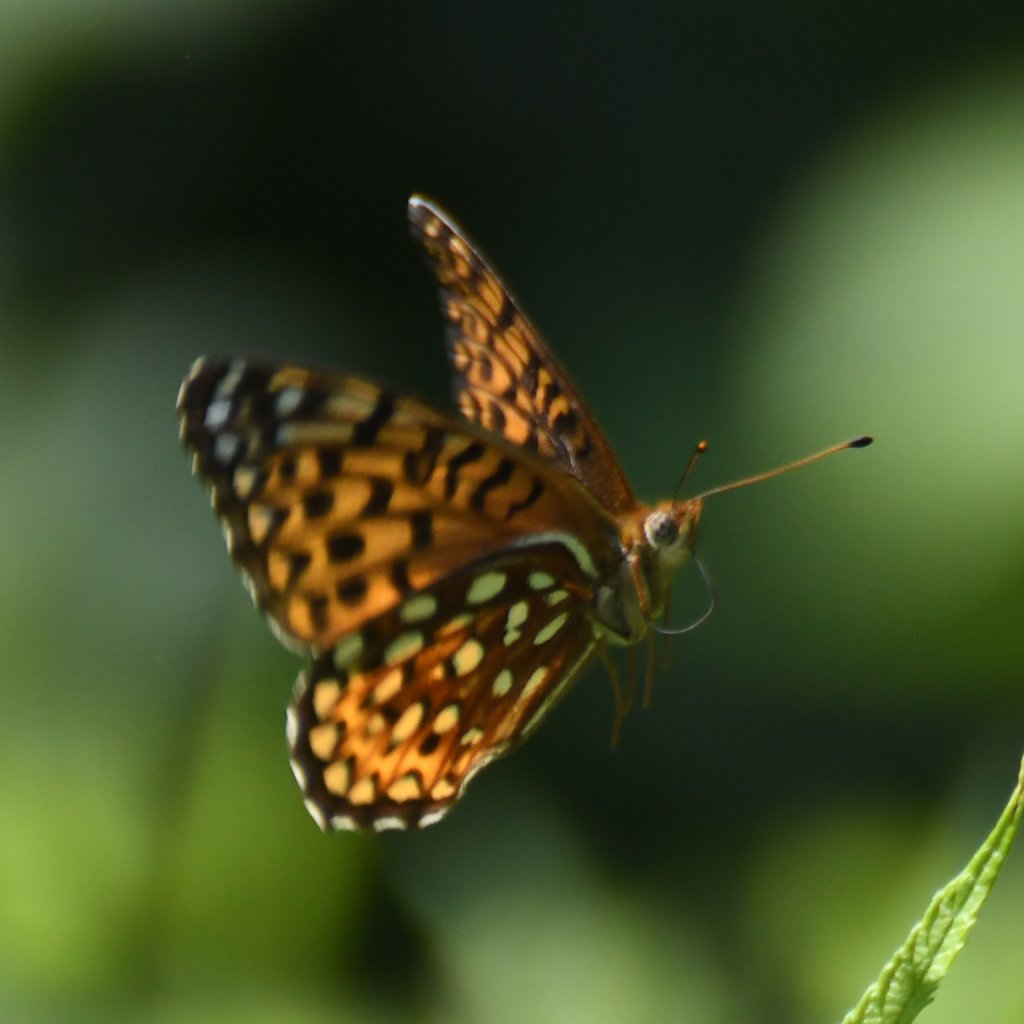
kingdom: Animalia
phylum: Arthropoda
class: Insecta
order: Lepidoptera
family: Nymphalidae
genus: Speyeria
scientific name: Speyeria atlantis
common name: Atlantis Fritillary
